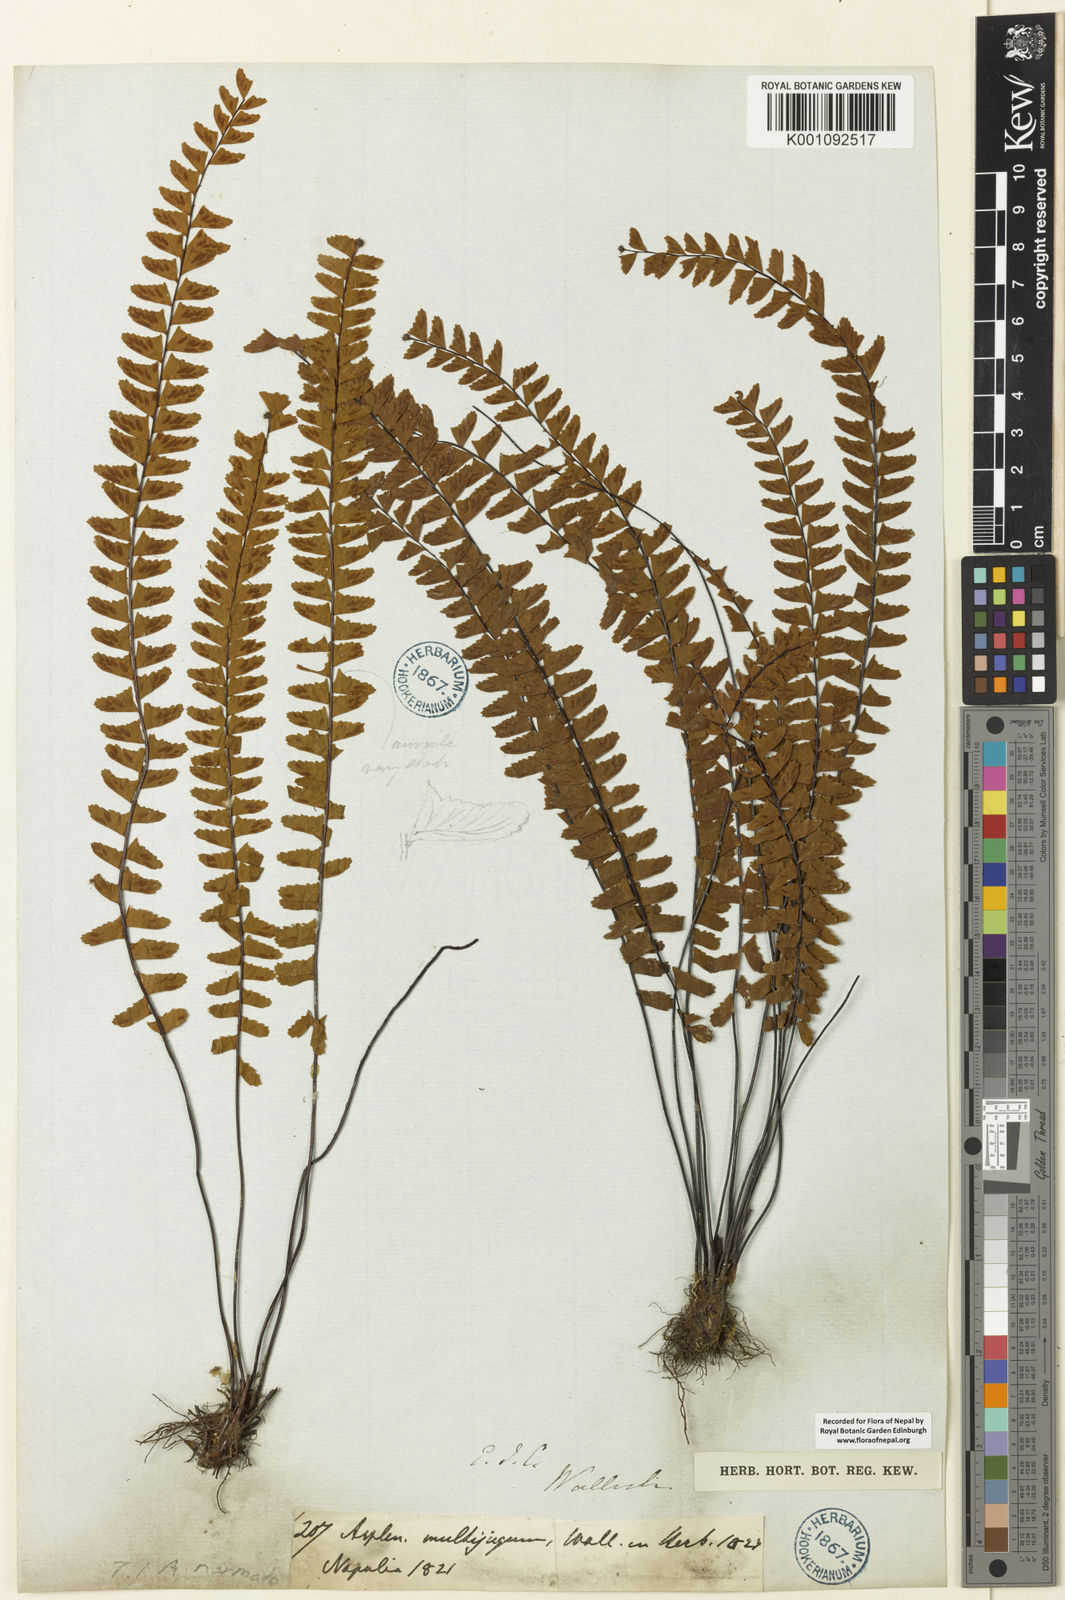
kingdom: Plantae
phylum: Tracheophyta
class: Polypodiopsida
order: Polypodiales
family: Aspleniaceae
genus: Asplenium
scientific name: Asplenium normale
